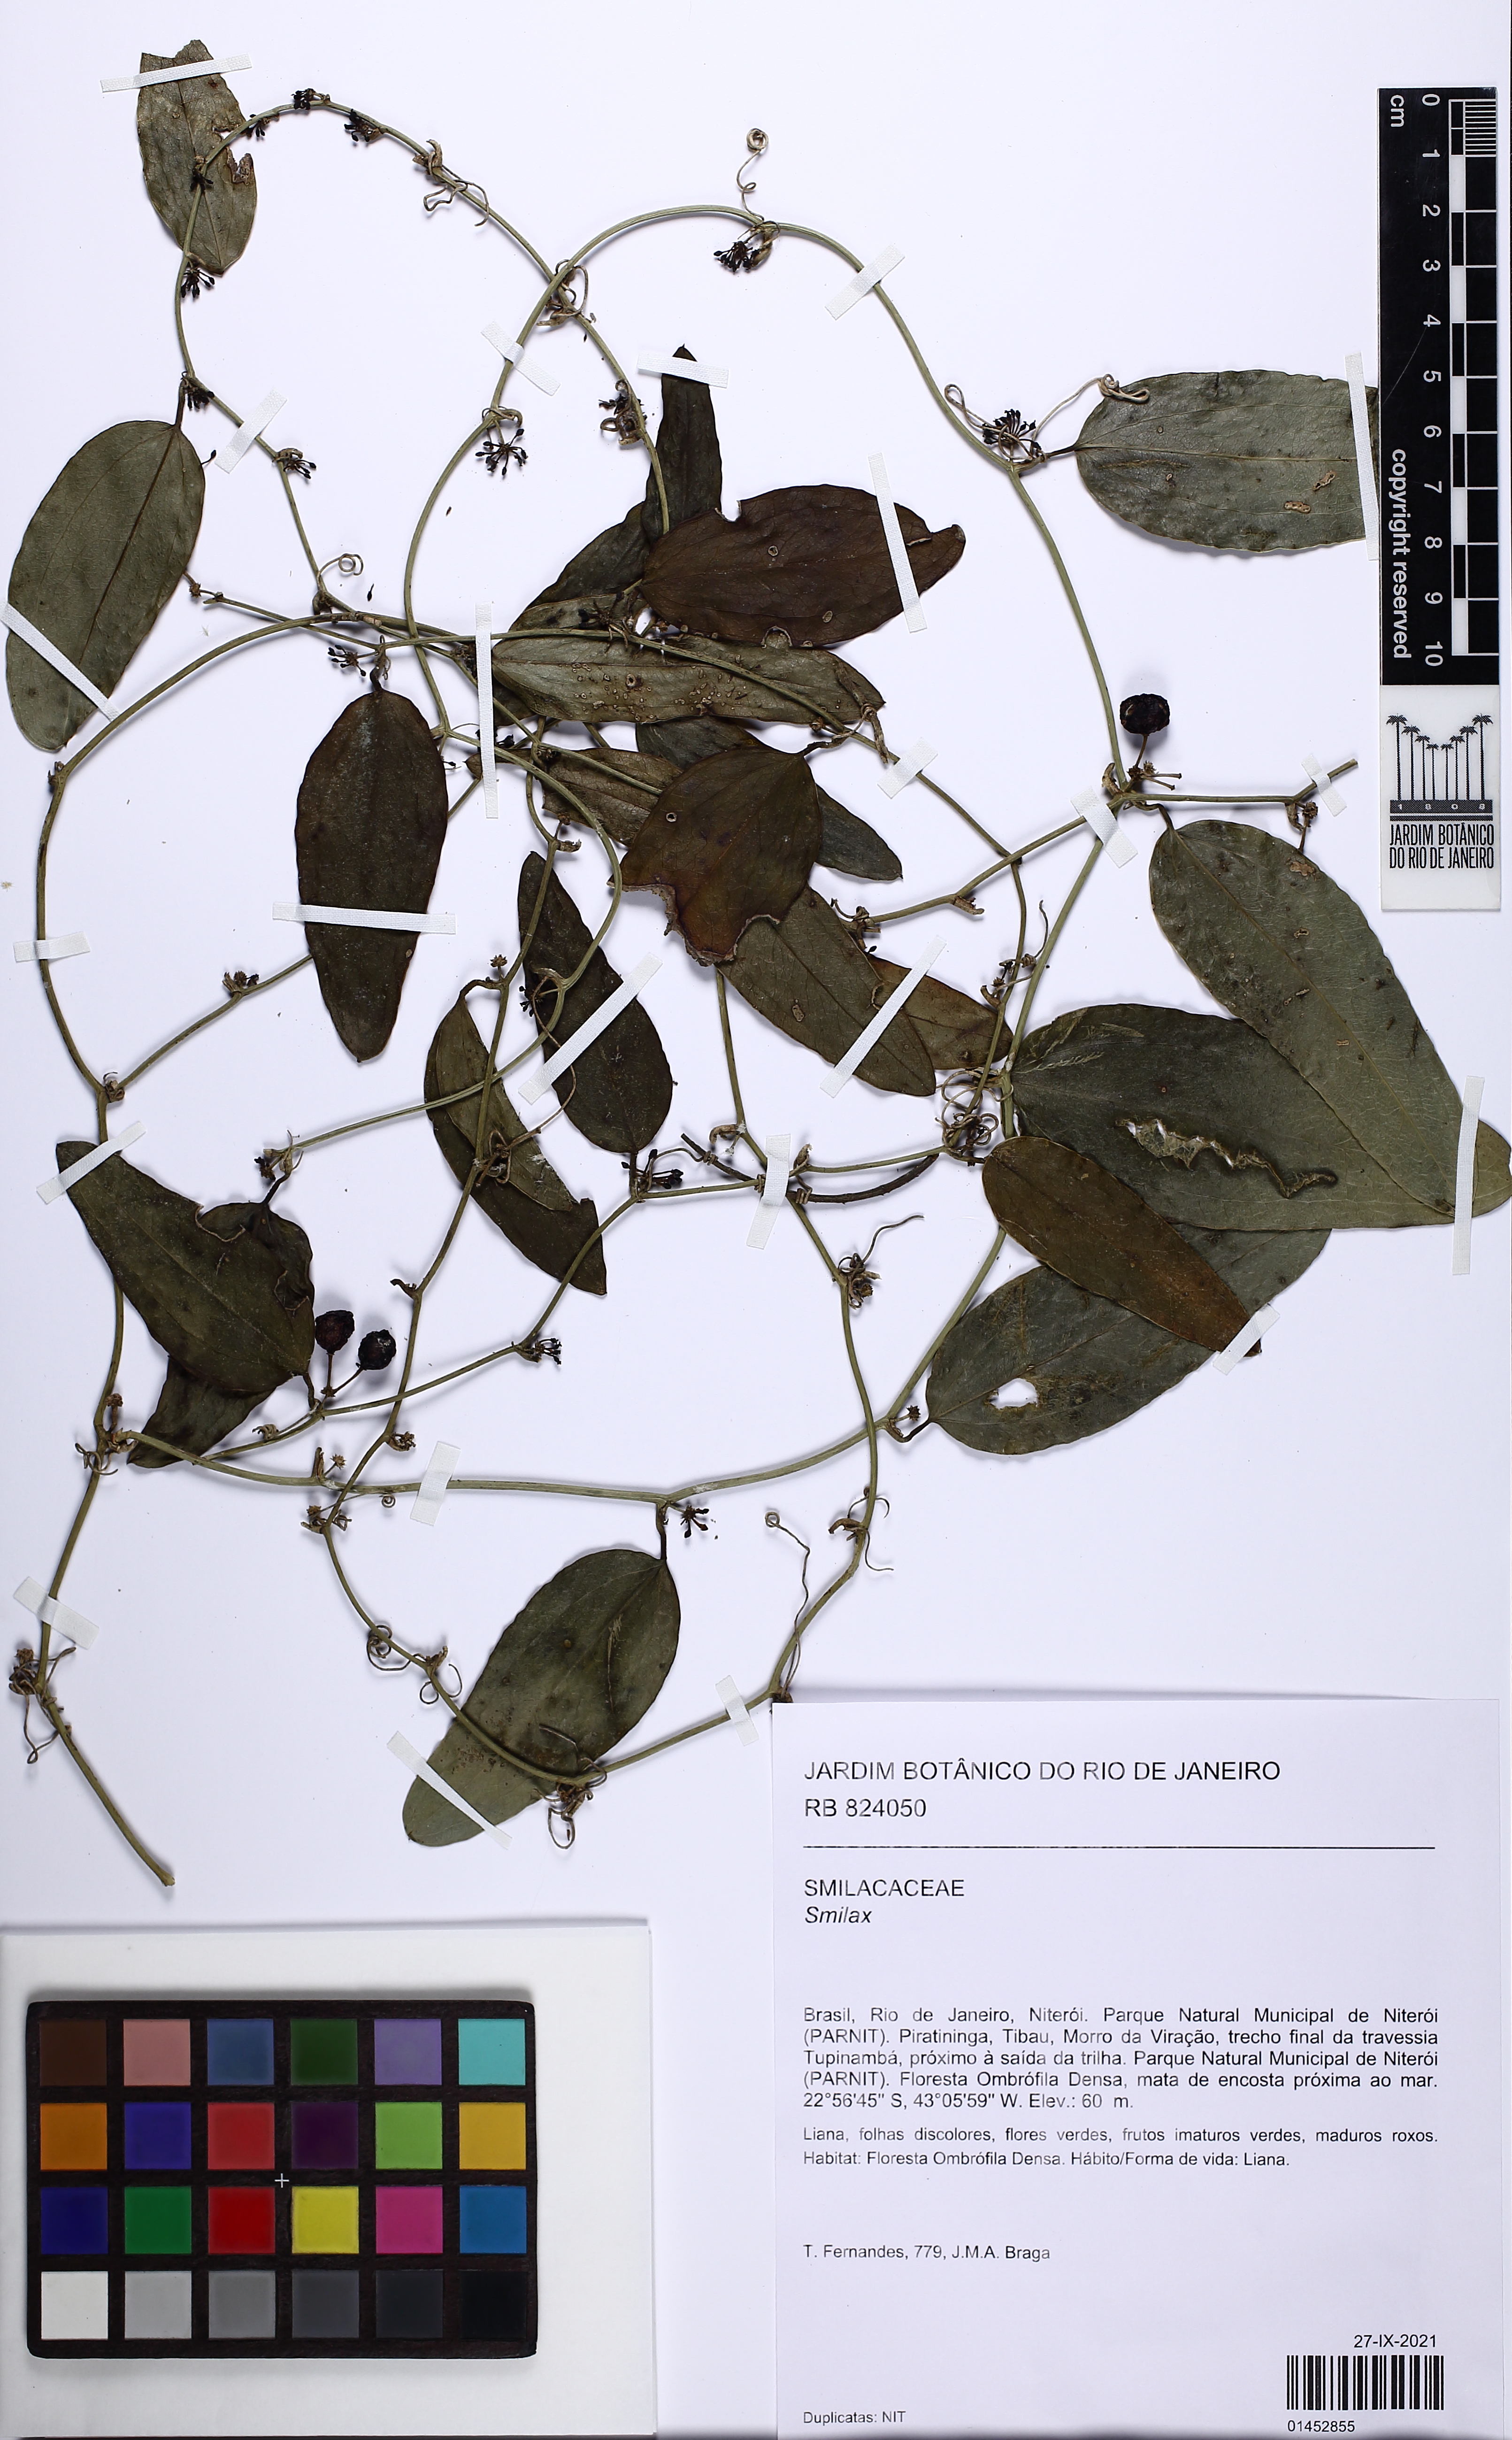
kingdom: Plantae
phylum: Tracheophyta
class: Liliopsida
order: Liliales
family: Smilacaceae
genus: Smilax
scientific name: Smilax
